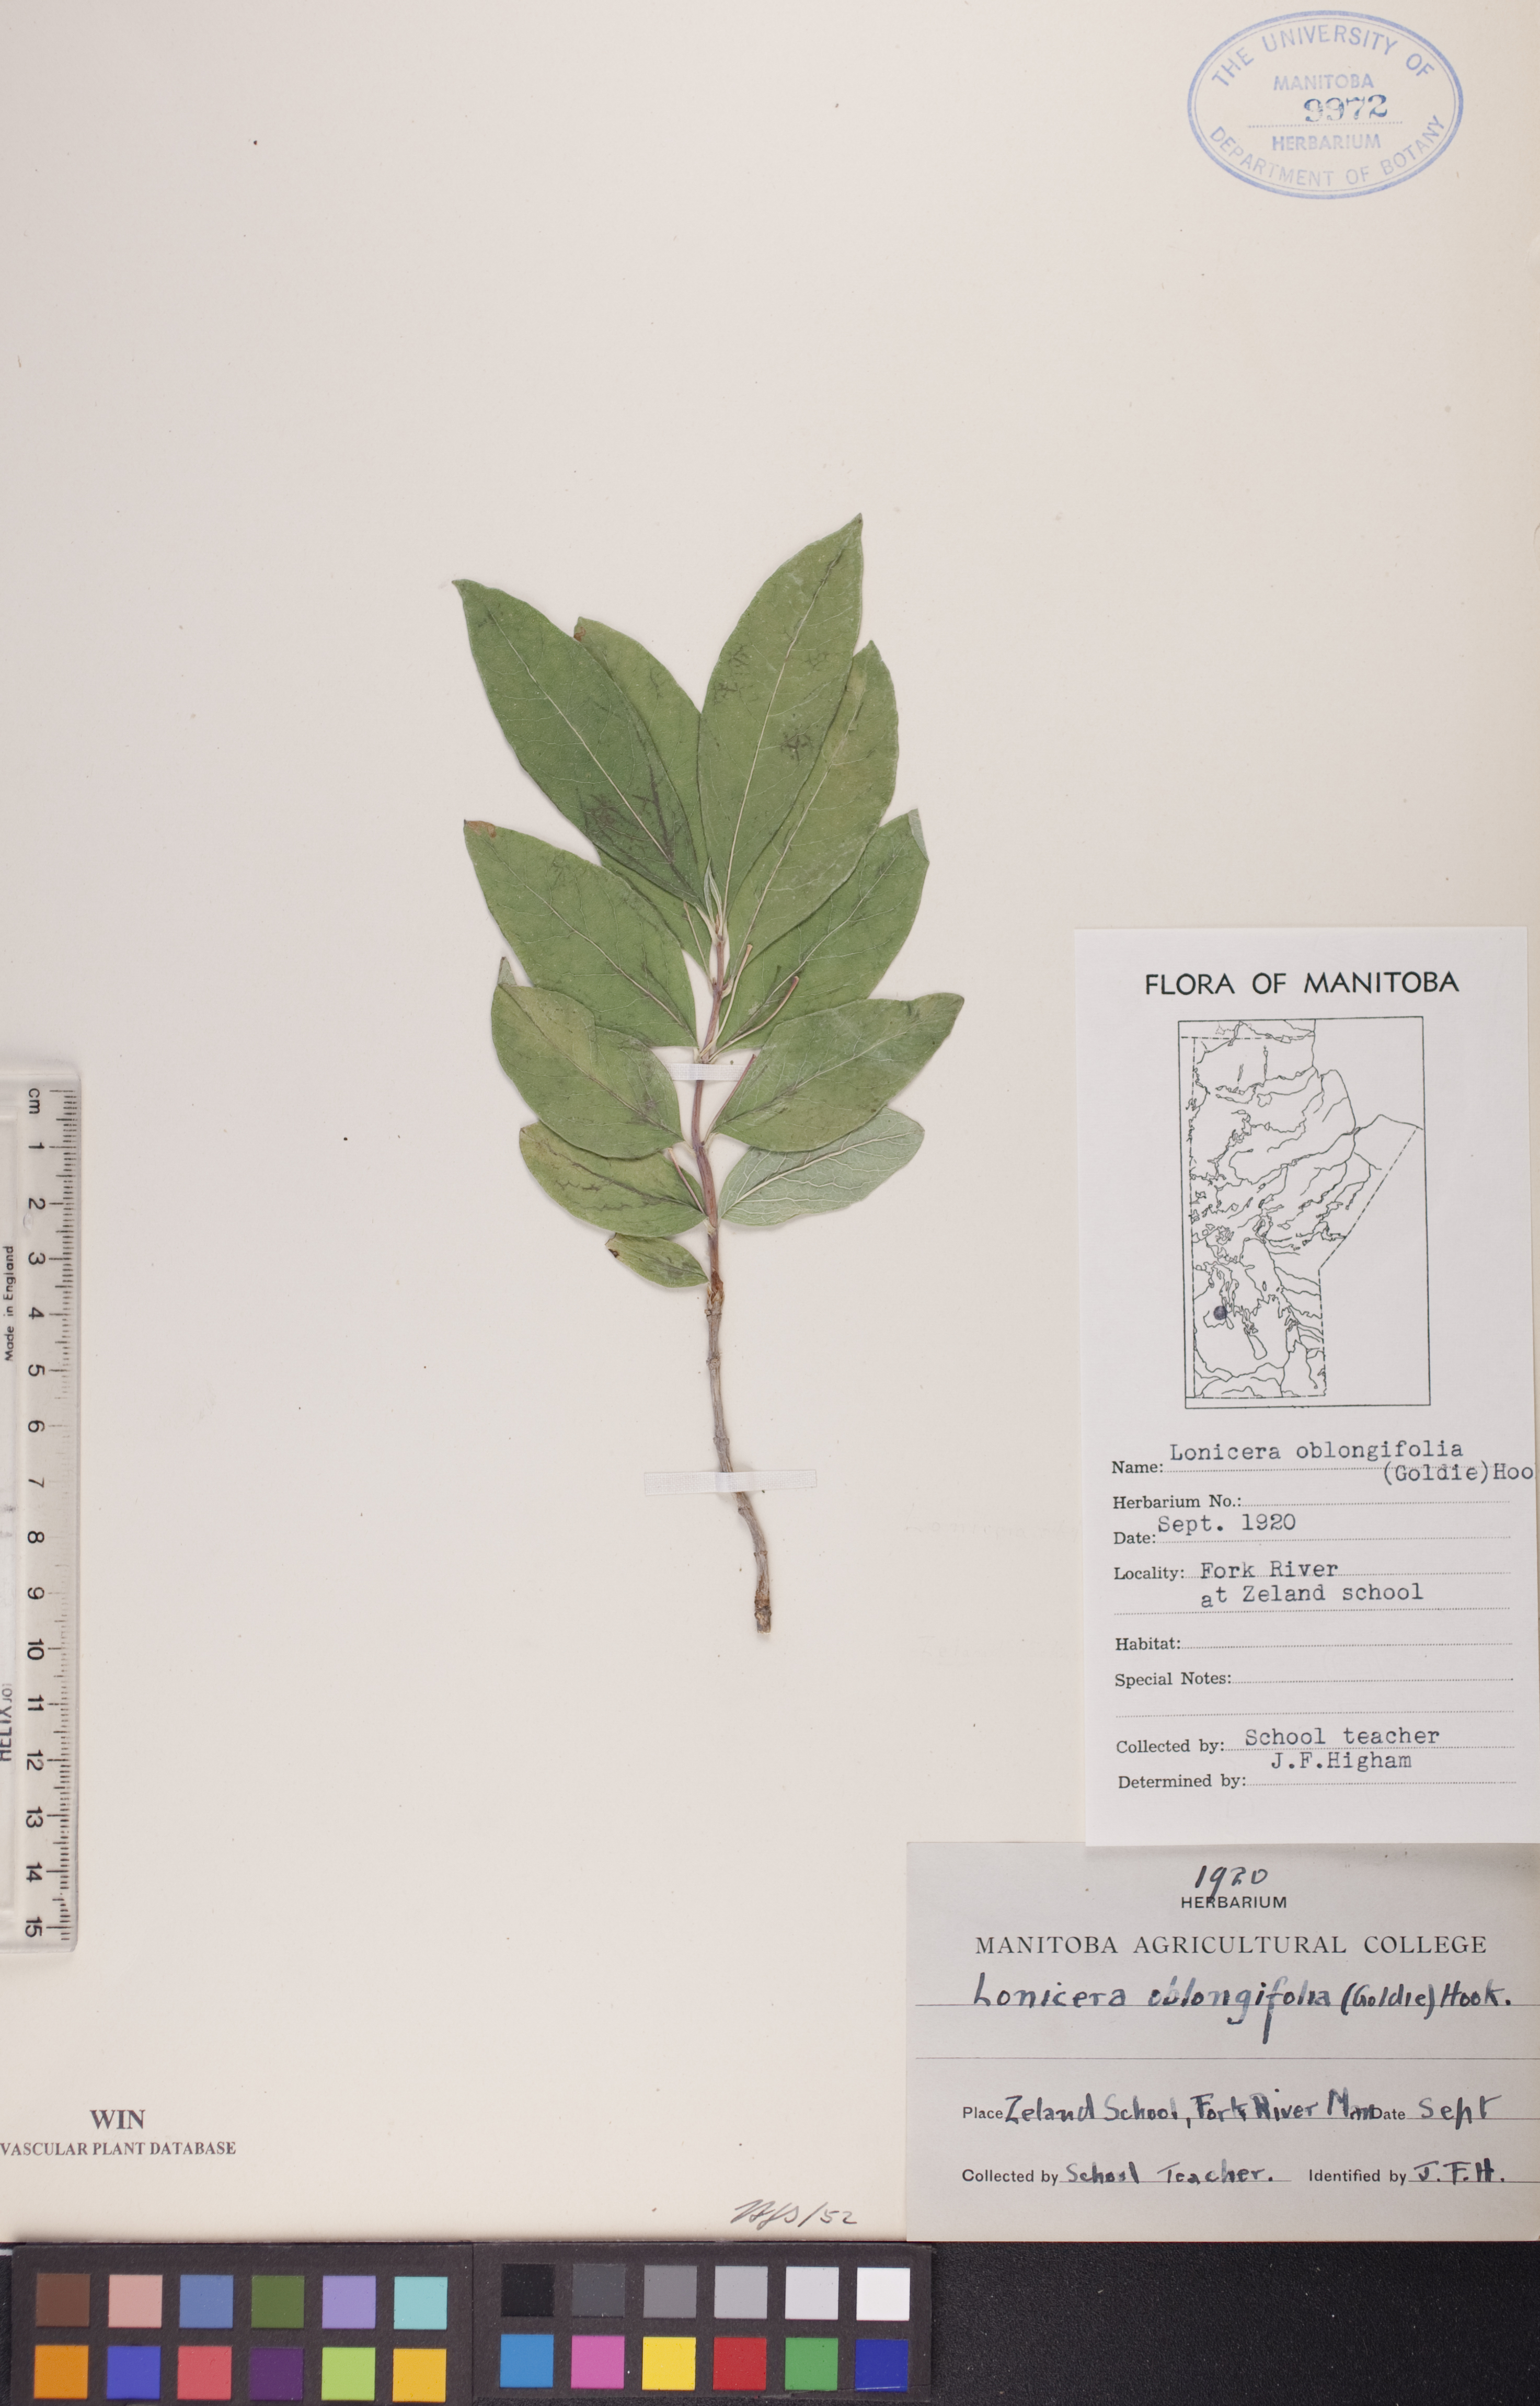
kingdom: Plantae
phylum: Tracheophyta
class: Magnoliopsida
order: Dipsacales
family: Caprifoliaceae
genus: Lonicera
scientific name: Lonicera oblongifolia
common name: Swamp fly honeysuckle
